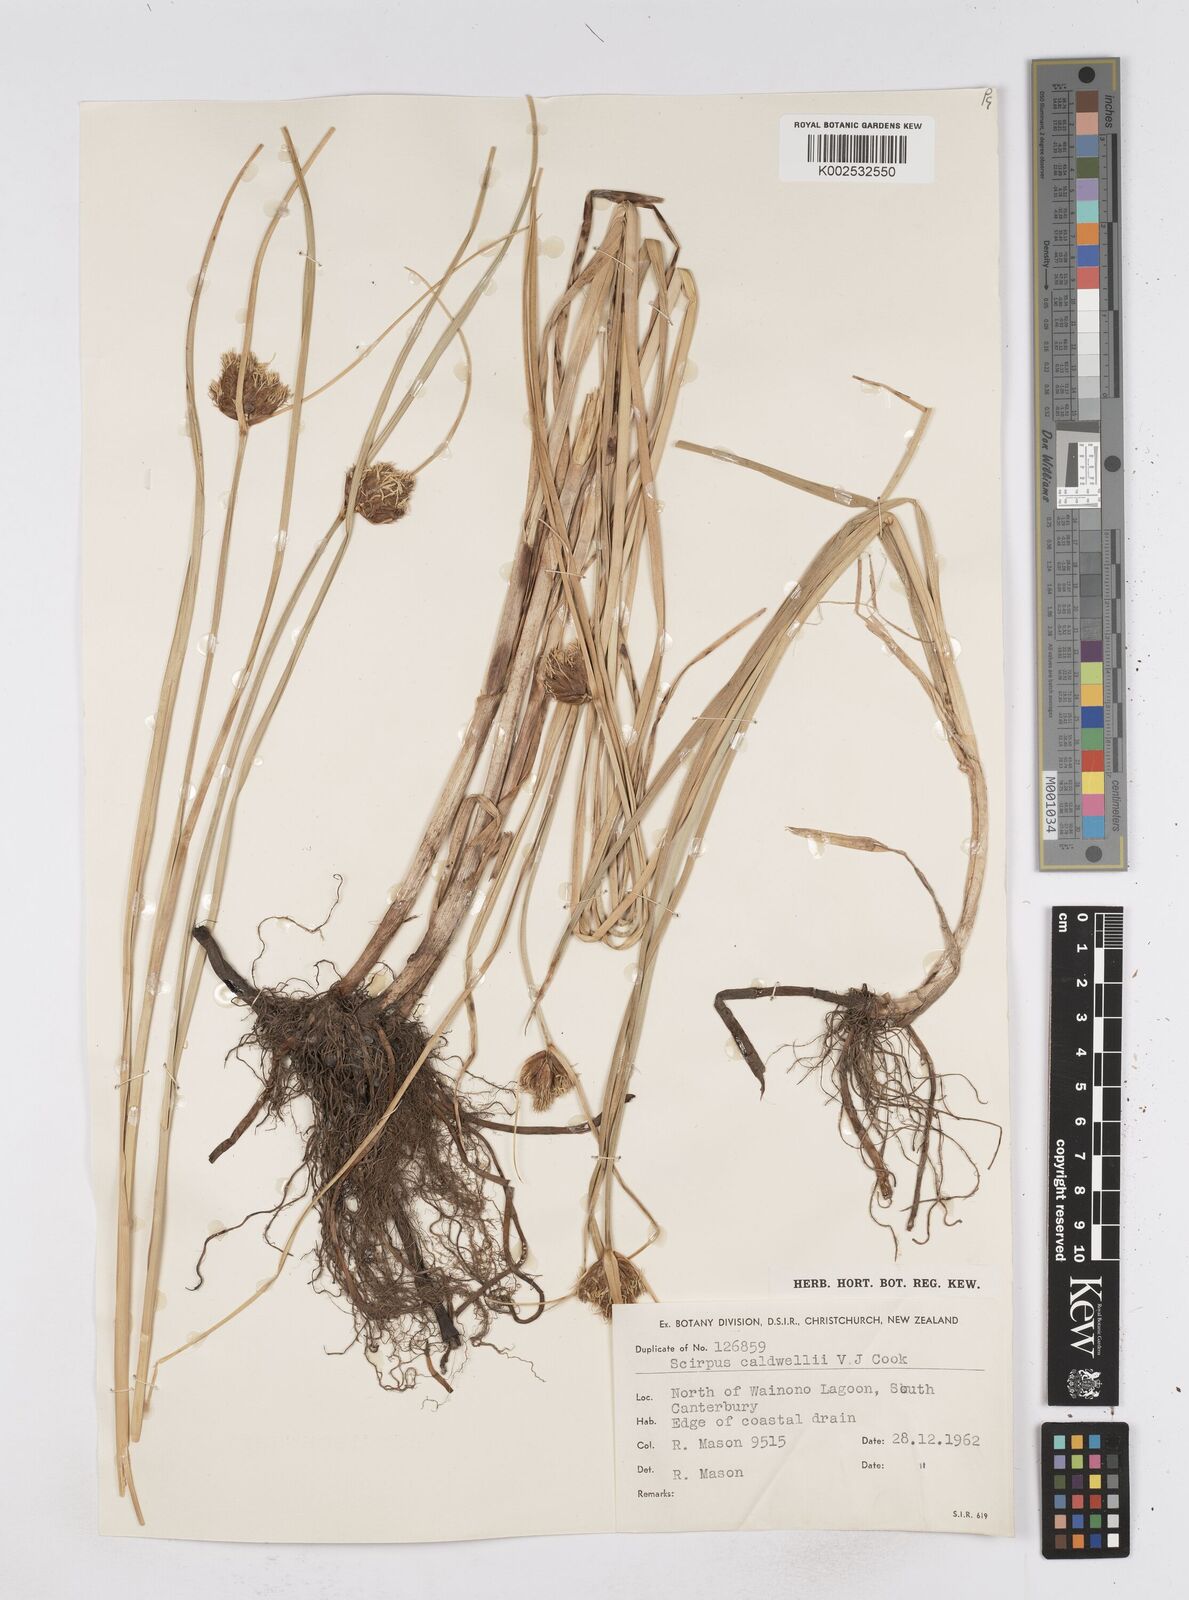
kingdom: Plantae
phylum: Tracheophyta
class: Liliopsida
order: Poales
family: Cyperaceae
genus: Bolboschoenus
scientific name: Bolboschoenus caldwellii
